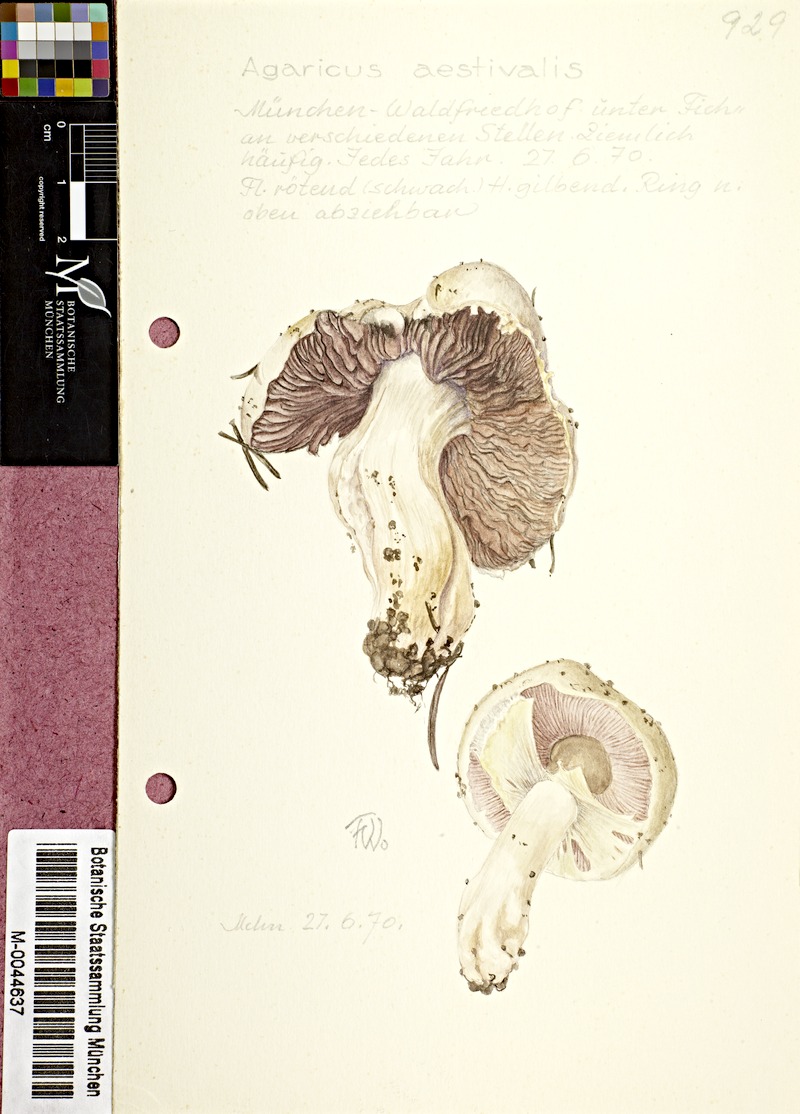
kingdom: Fungi
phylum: Basidiomycota
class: Agaricomycetes
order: Agaricales
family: Agaricaceae
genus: Agaricus
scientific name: Agaricus altipes
